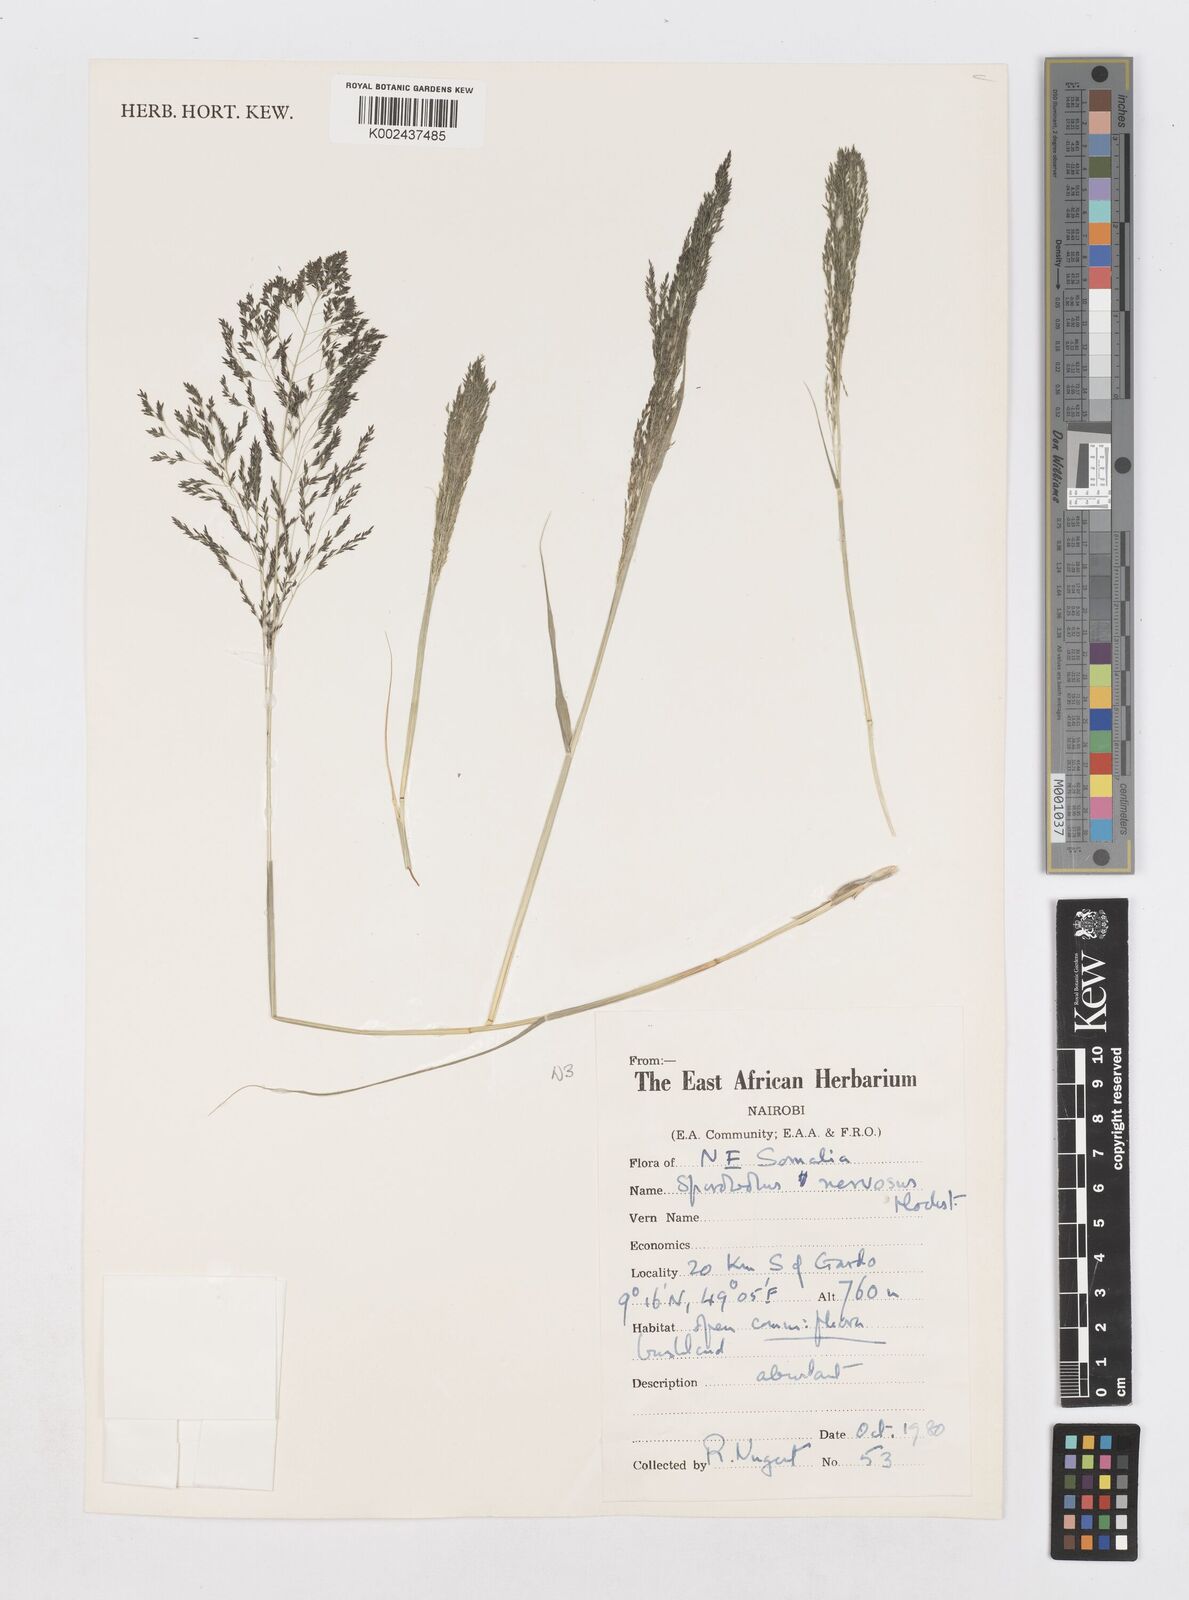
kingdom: Plantae
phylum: Tracheophyta
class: Liliopsida
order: Poales
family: Poaceae
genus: Sporobolus
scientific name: Sporobolus nervosus
